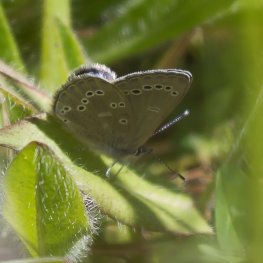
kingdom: Animalia
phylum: Arthropoda
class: Insecta
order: Lepidoptera
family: Lycaenidae
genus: Glaucopsyche
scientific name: Glaucopsyche lygdamus
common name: Silvery Blue
